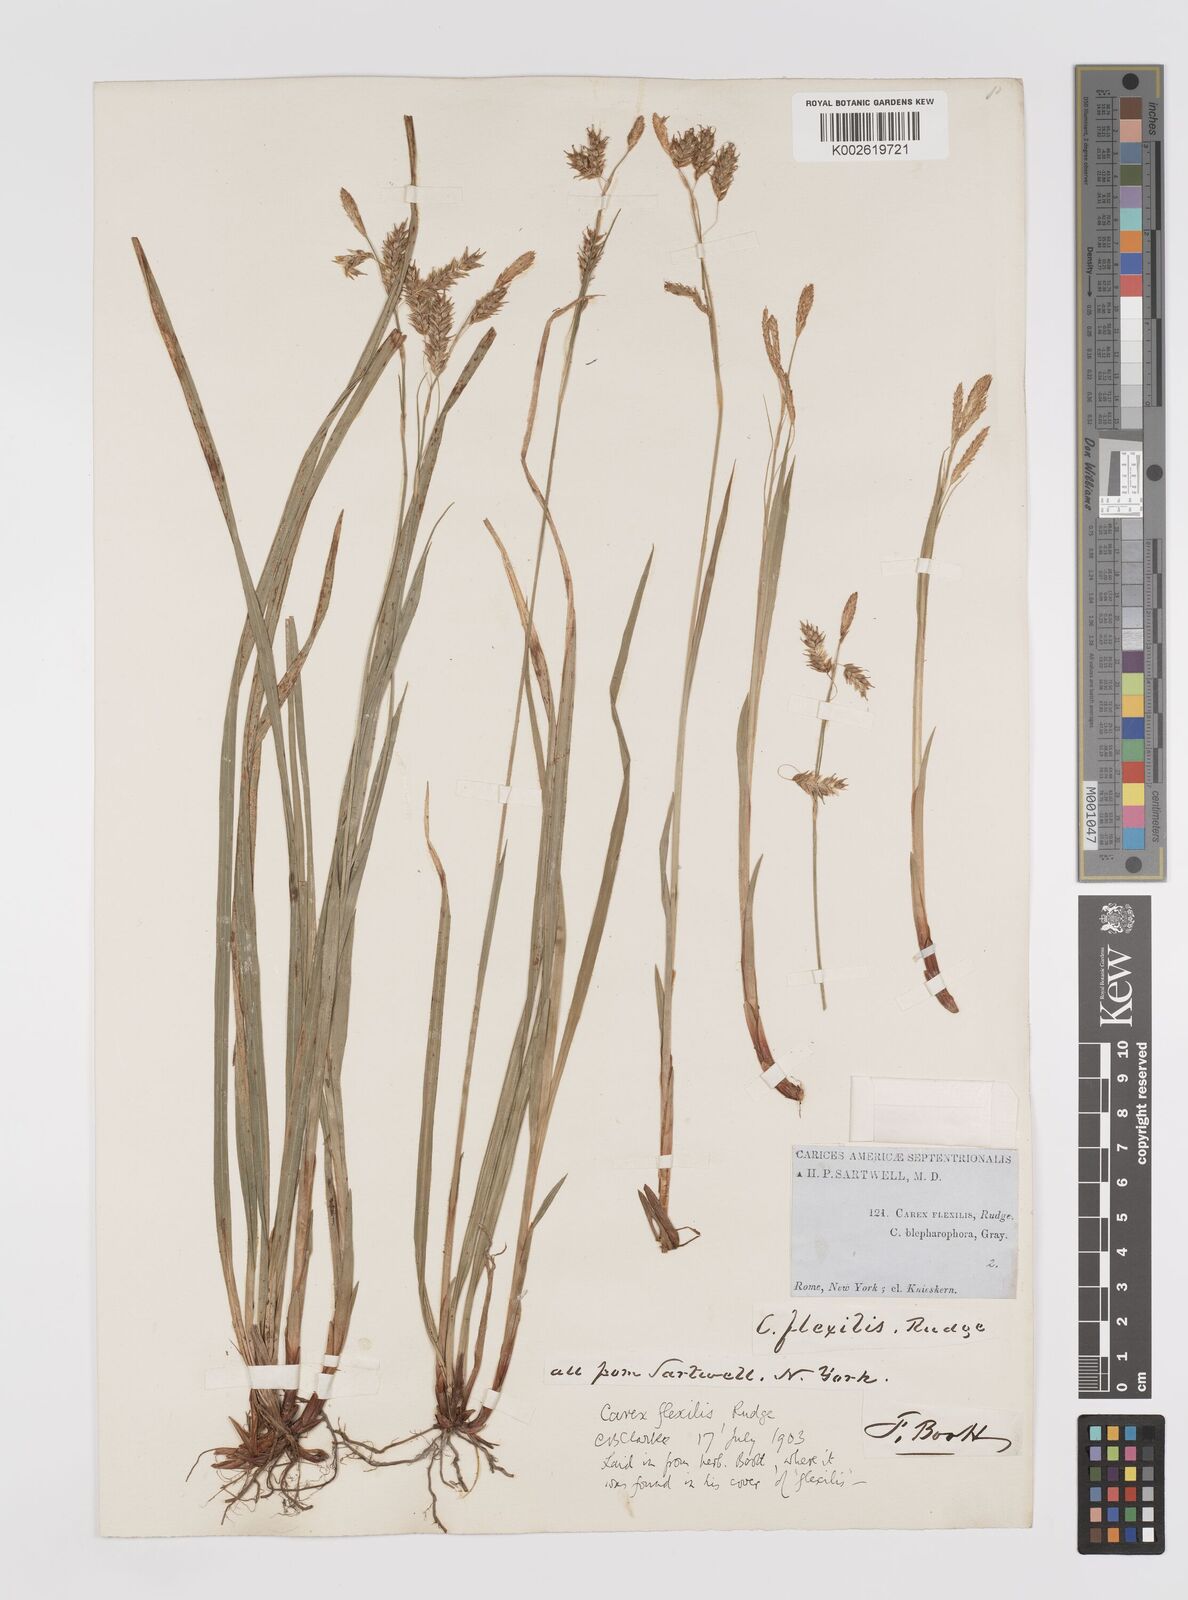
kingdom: Plantae
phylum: Tracheophyta
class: Liliopsida
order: Poales
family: Cyperaceae
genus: Carex
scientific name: Carex castanea
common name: Chestnut sedge
